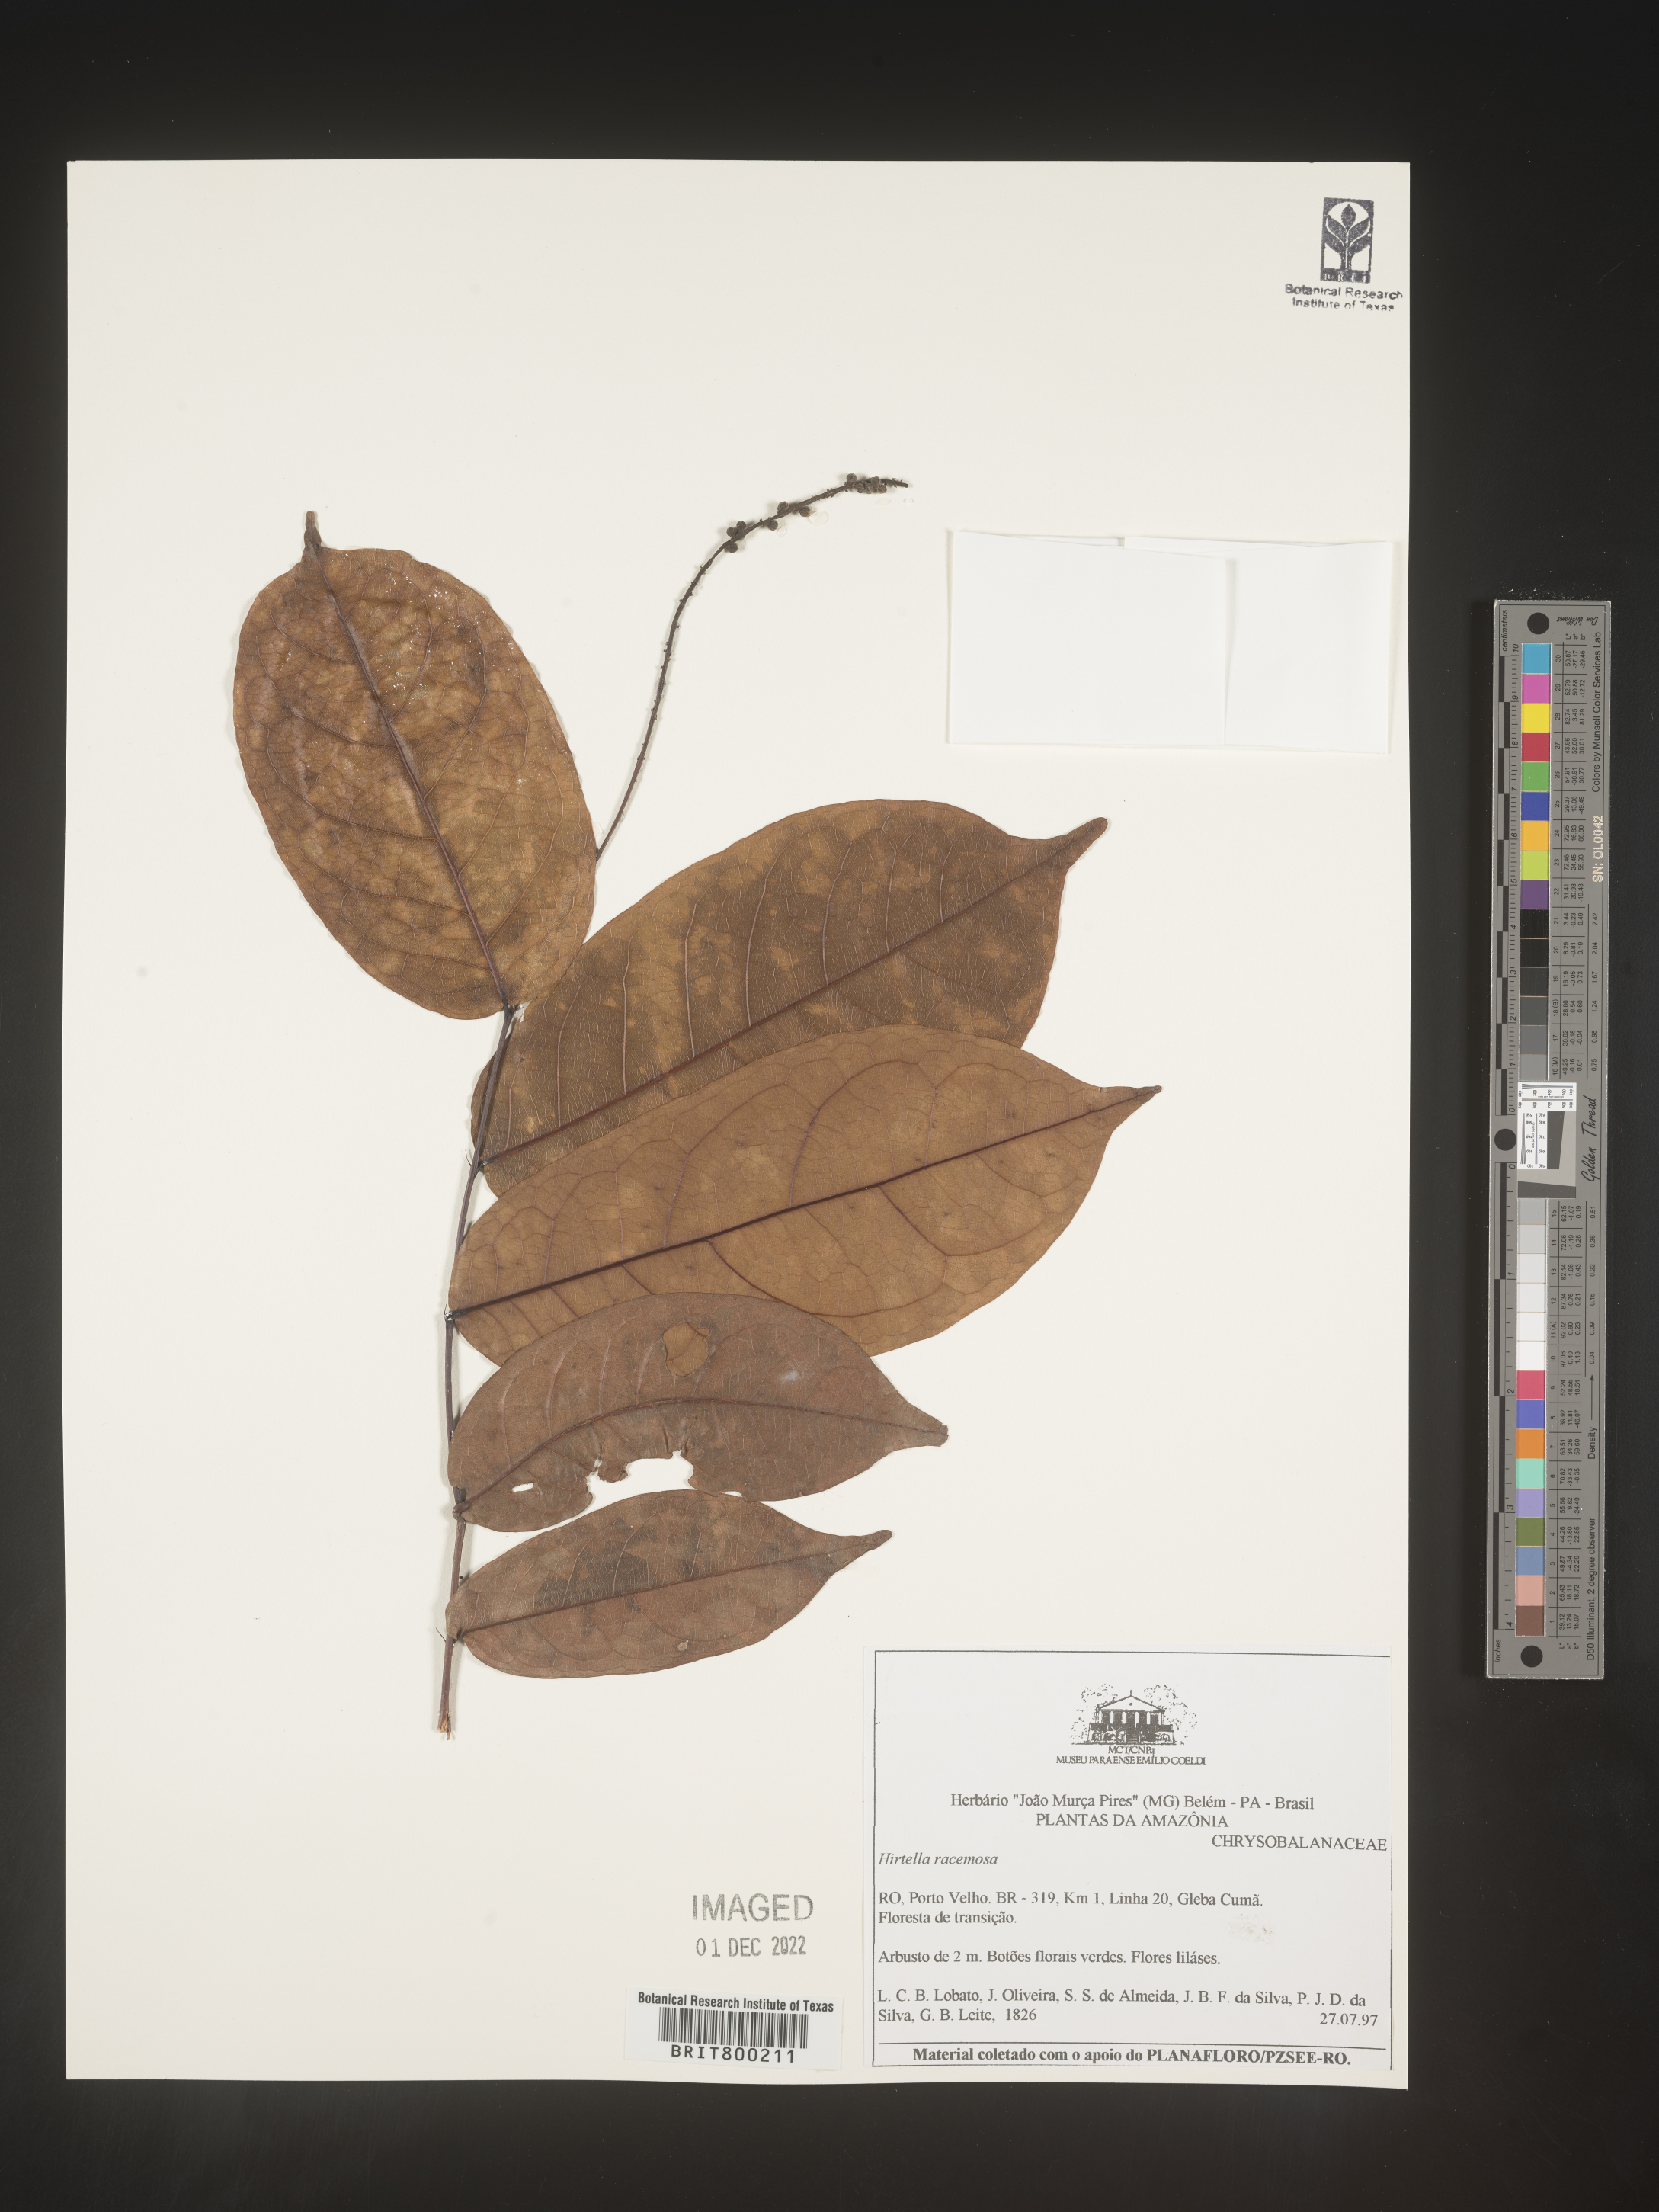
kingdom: Plantae
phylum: Tracheophyta
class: Magnoliopsida
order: Malpighiales
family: Chrysobalanaceae
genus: Hirtella
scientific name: Hirtella
